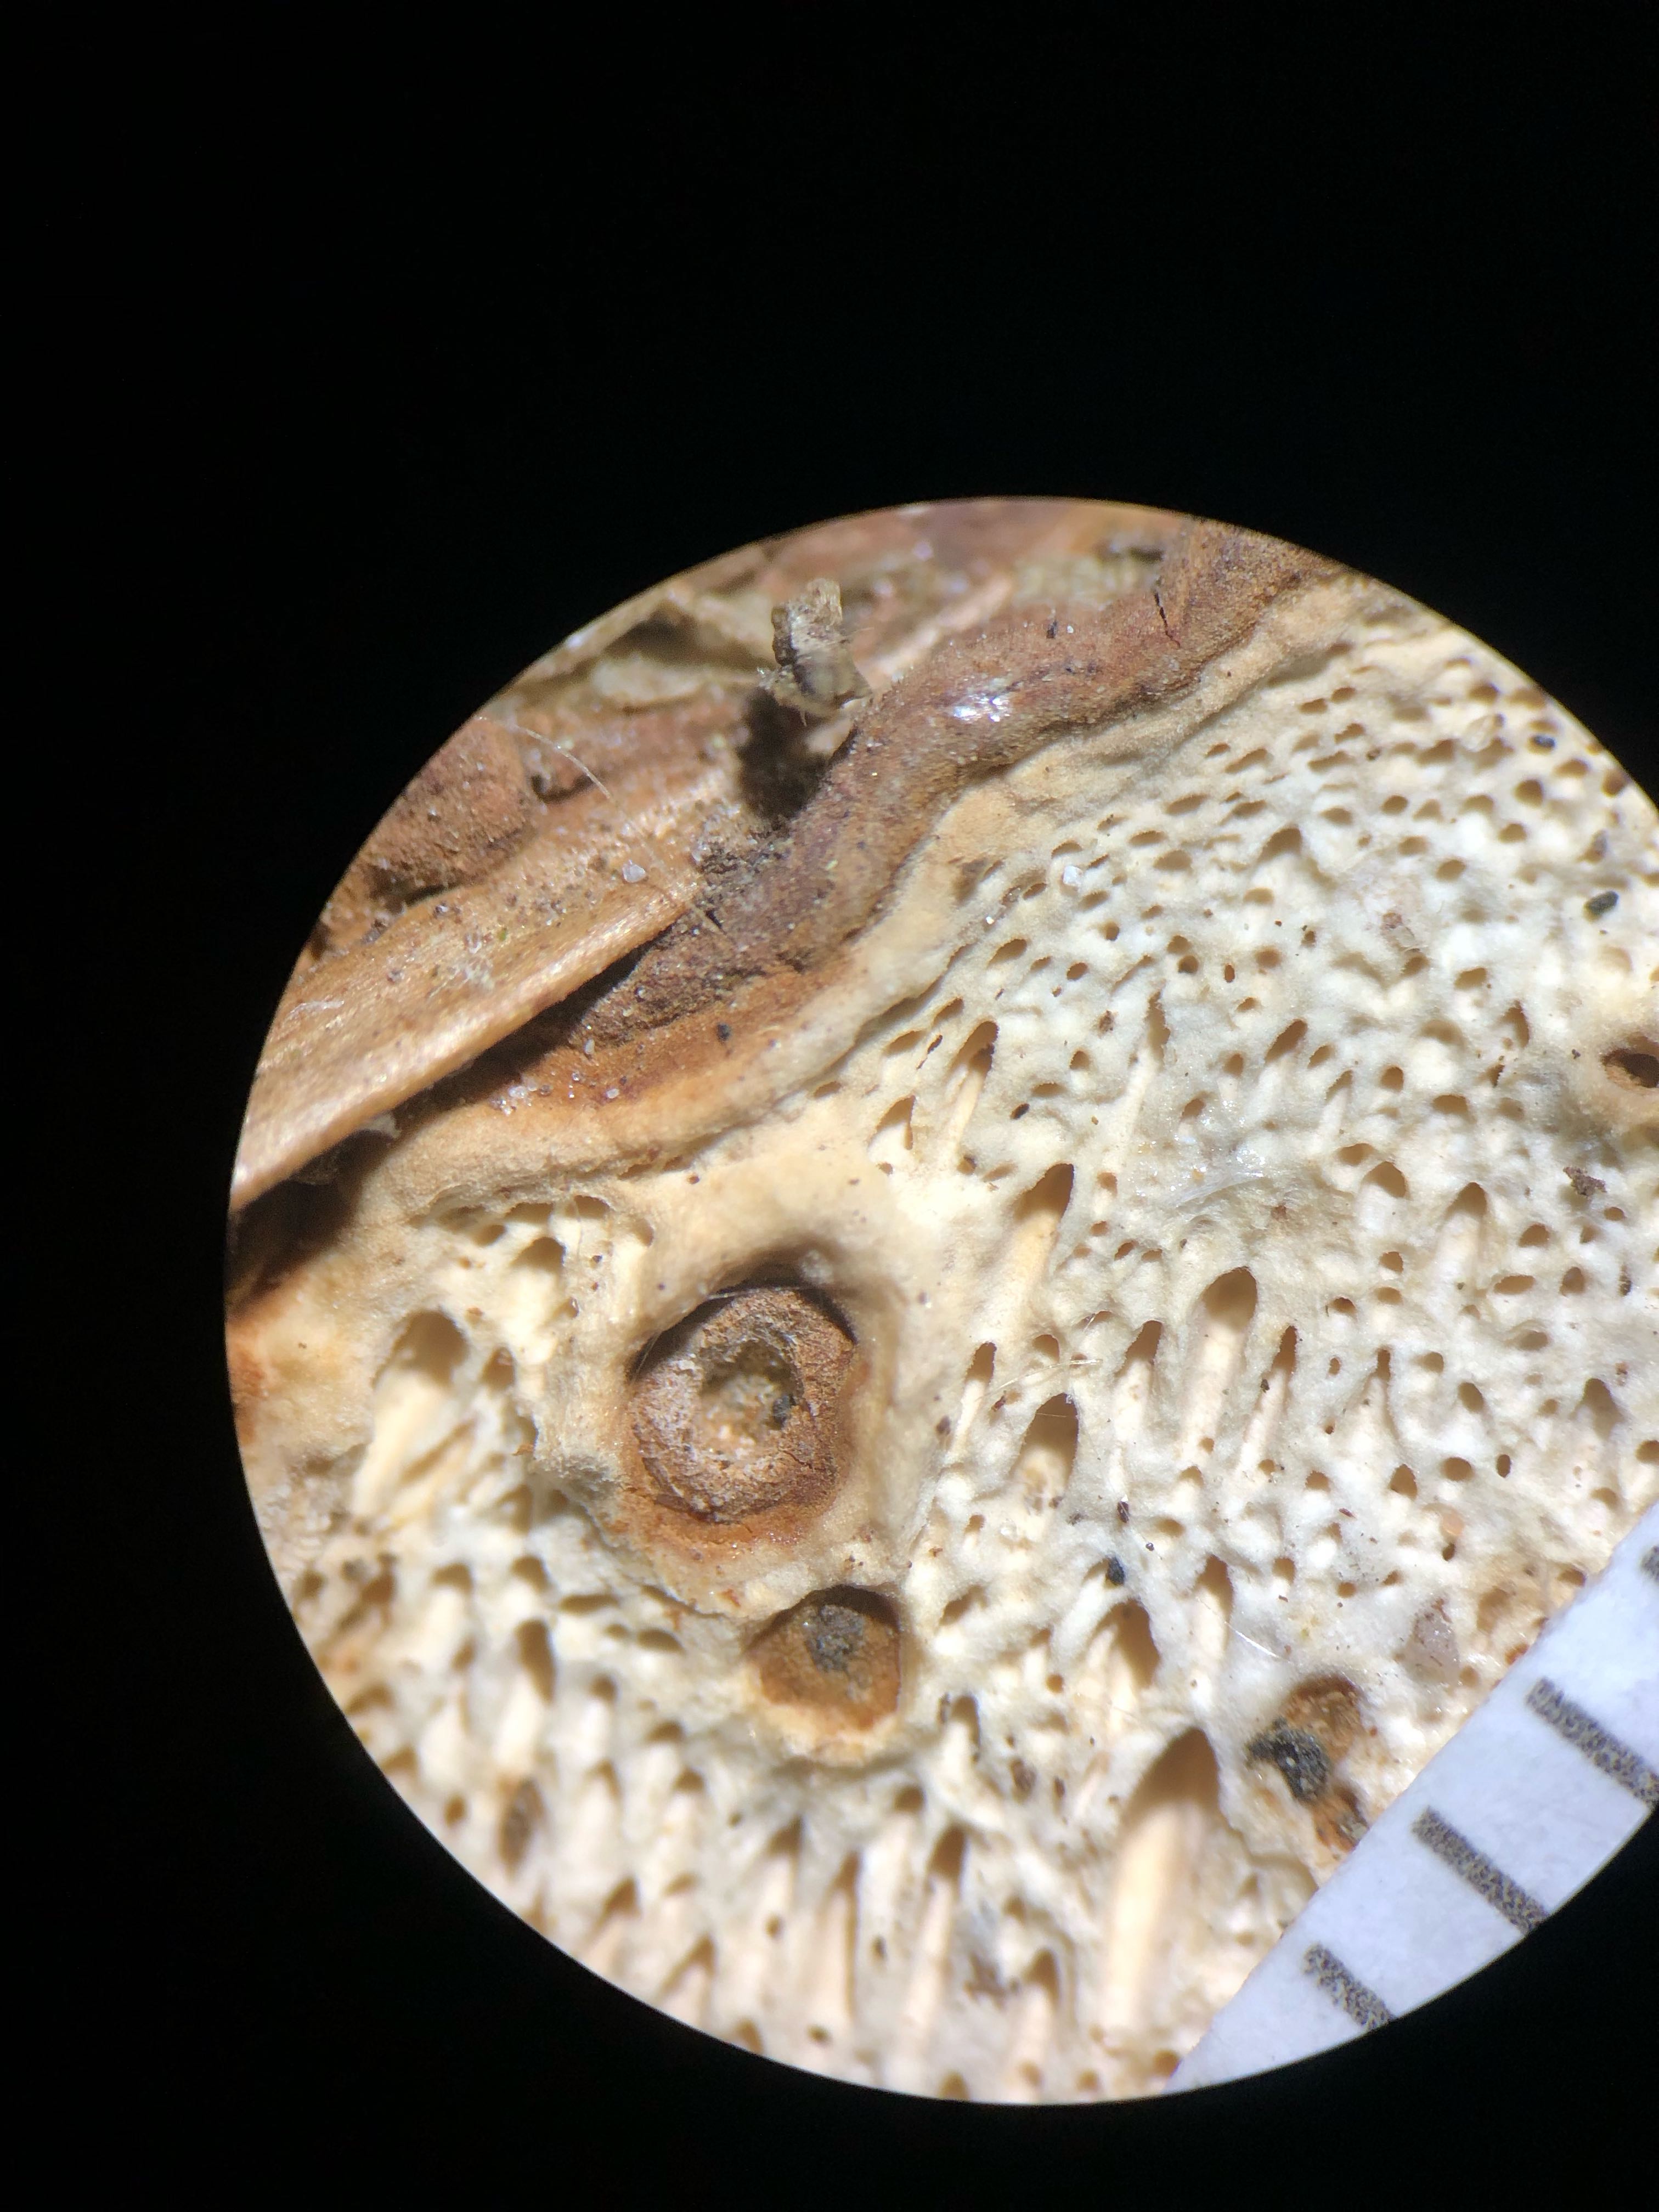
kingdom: Fungi
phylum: Basidiomycota
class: Agaricomycetes
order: Russulales
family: Bondarzewiaceae
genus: Heterobasidion
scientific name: Heterobasidion annosum
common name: almindelig rodfordærver
